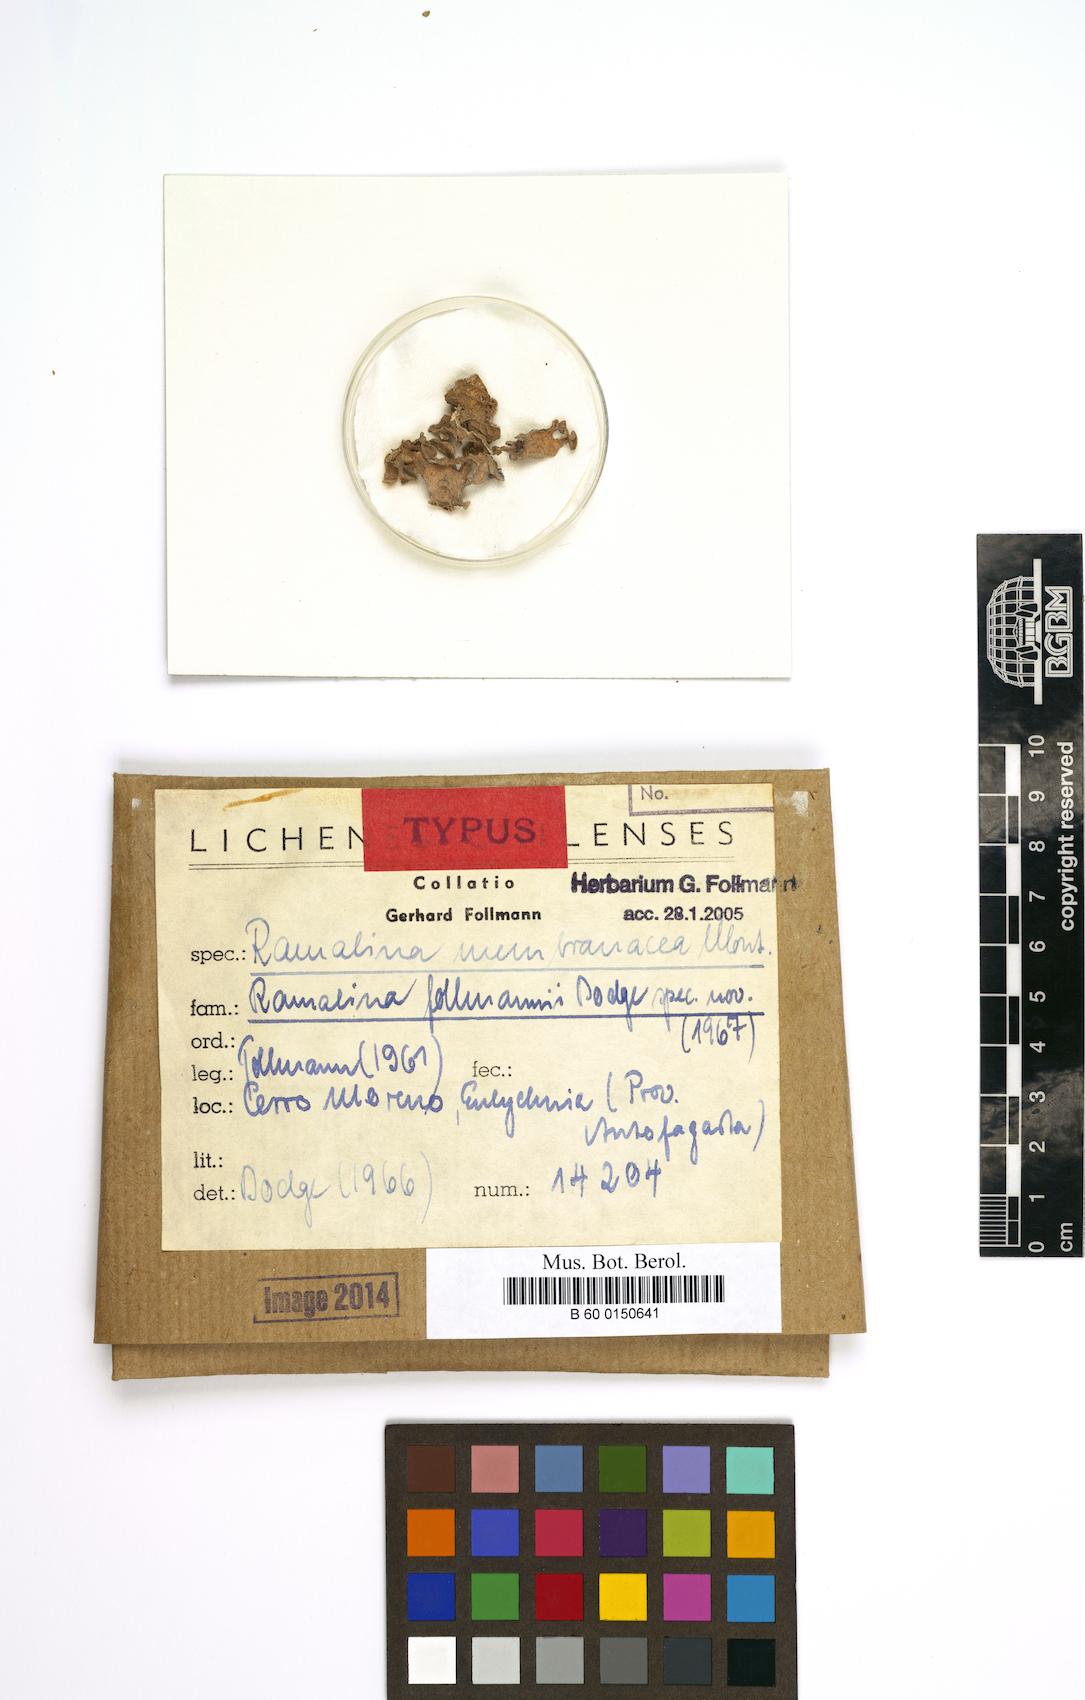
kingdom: Fungi
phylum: Ascomycota
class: Lecanoromycetes
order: Lecanorales
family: Ramalinaceae
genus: Ramalina
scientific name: Ramalina
